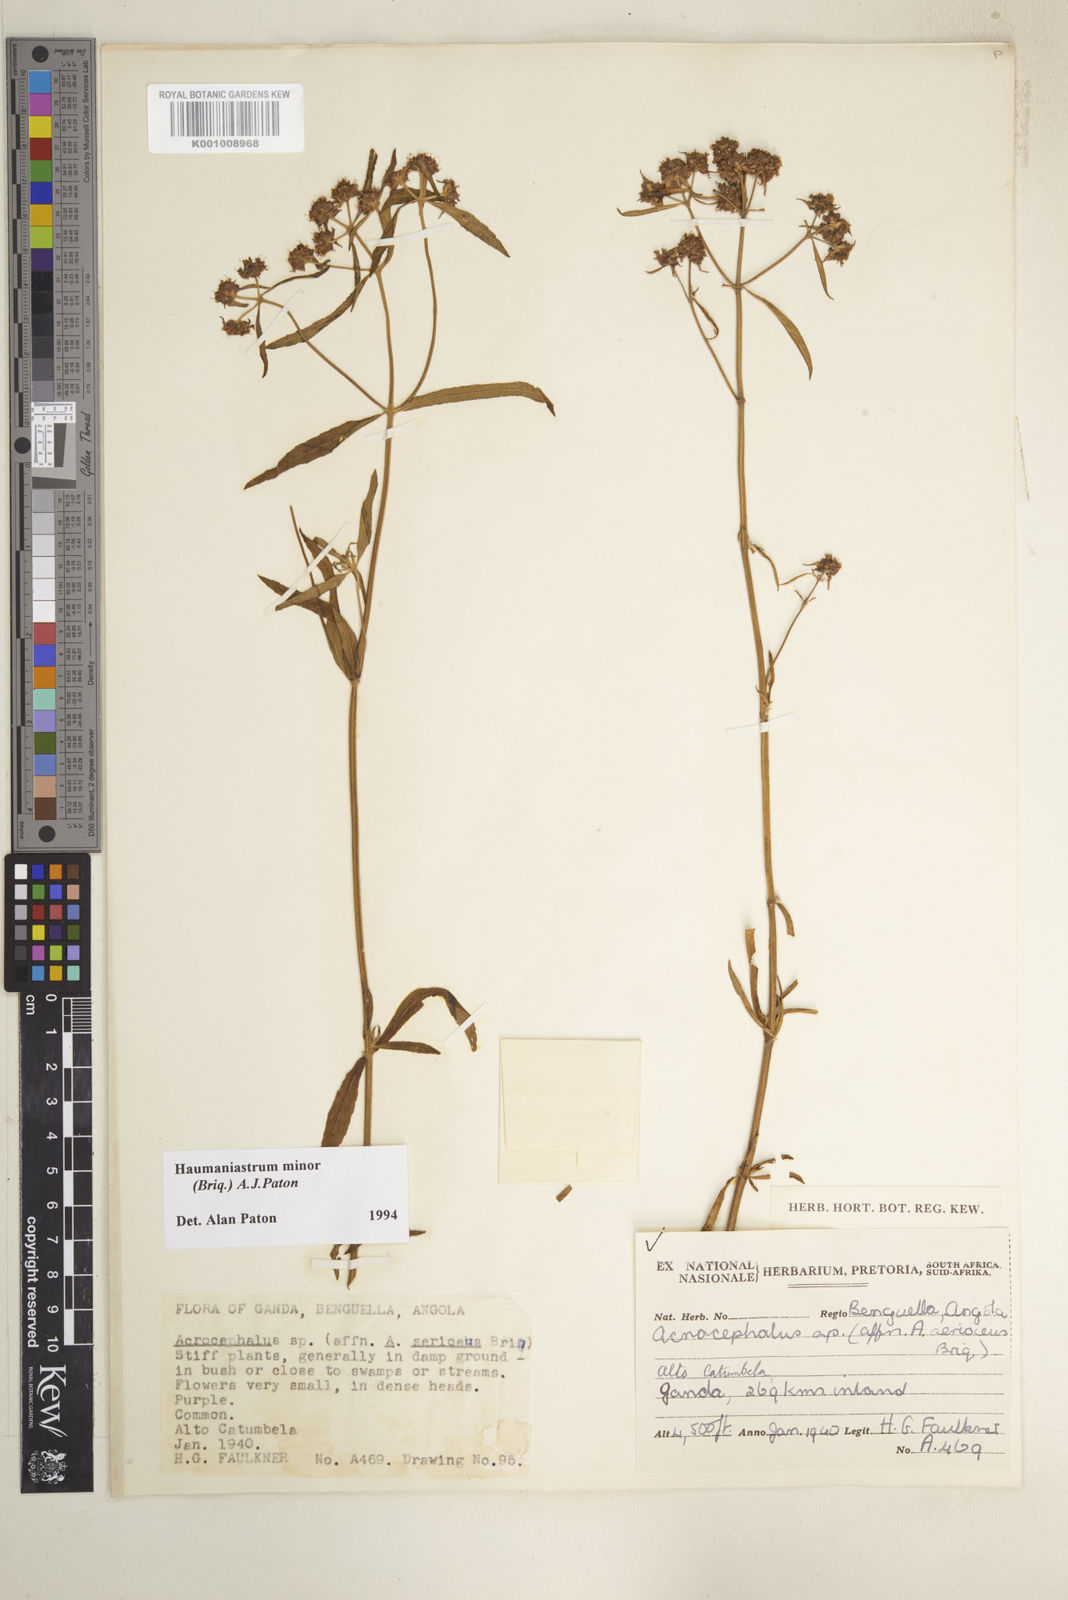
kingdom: Plantae
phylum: Tracheophyta
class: Magnoliopsida
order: Lamiales
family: Lamiaceae
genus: Haumaniastrum
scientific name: Haumaniastrum minor
